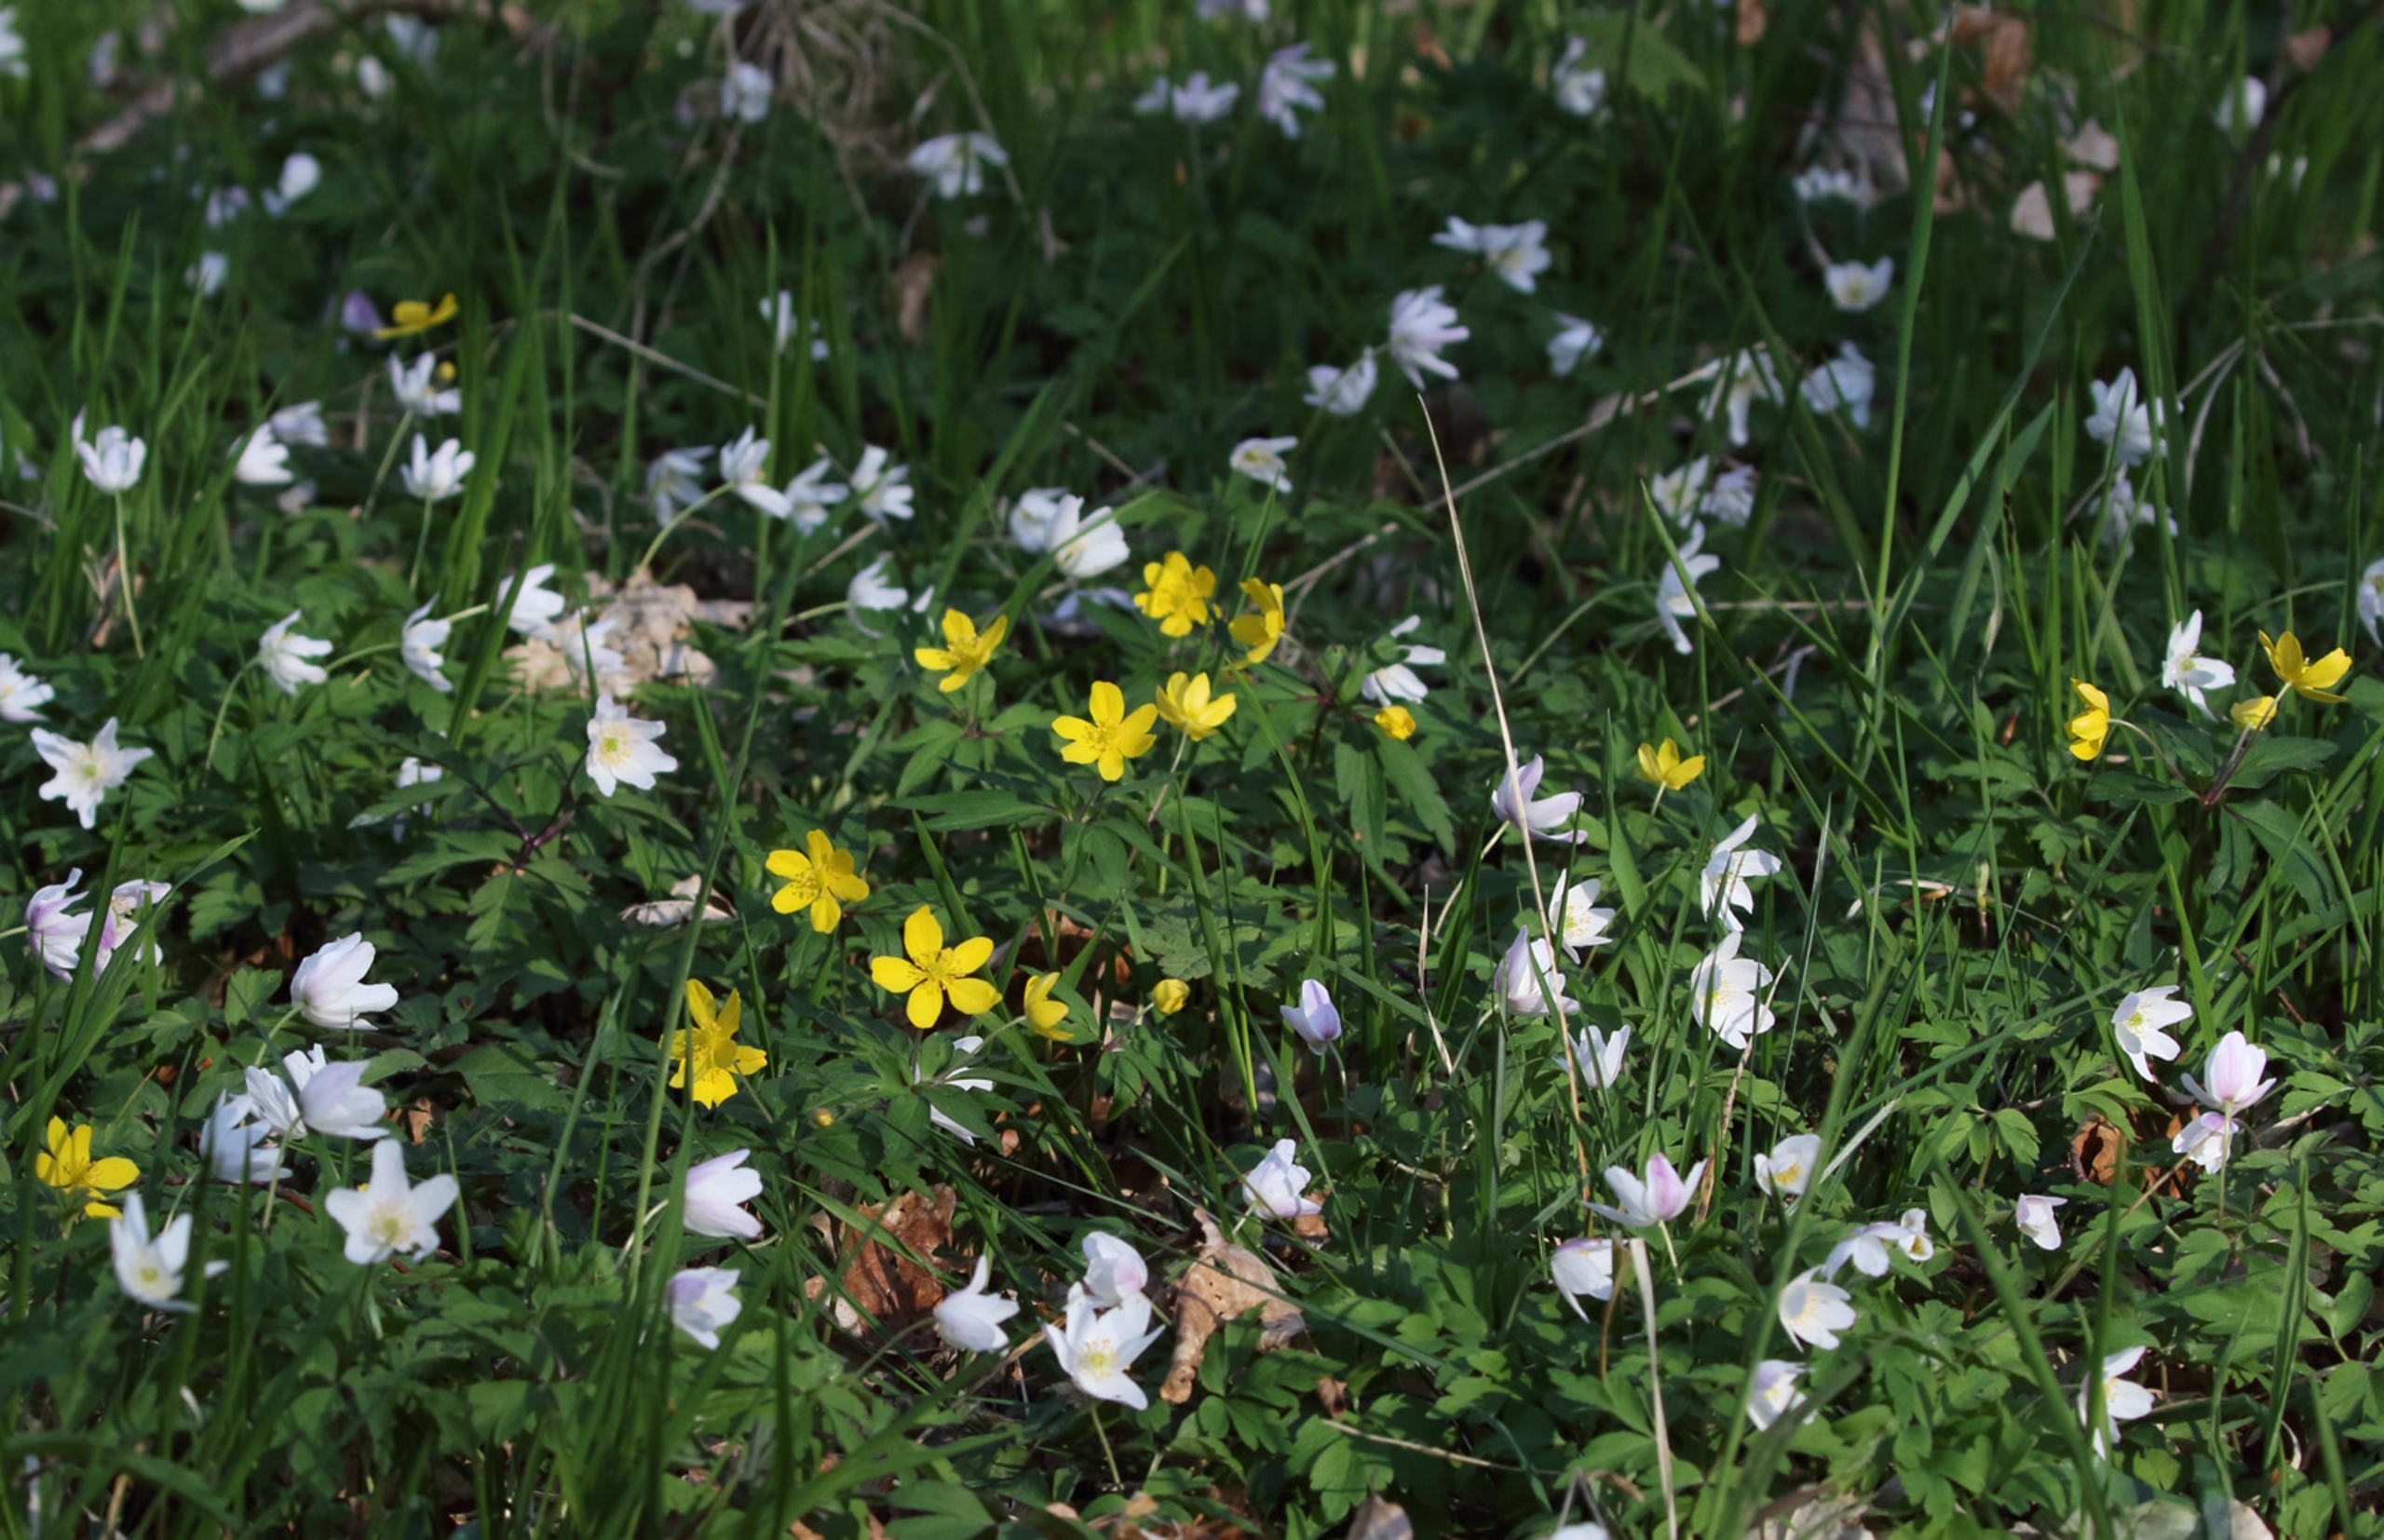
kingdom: Plantae
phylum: Tracheophyta
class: Magnoliopsida
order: Ranunculales
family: Ranunculaceae
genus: Anemone
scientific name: Anemone ranunculoides
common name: Gul anemone
